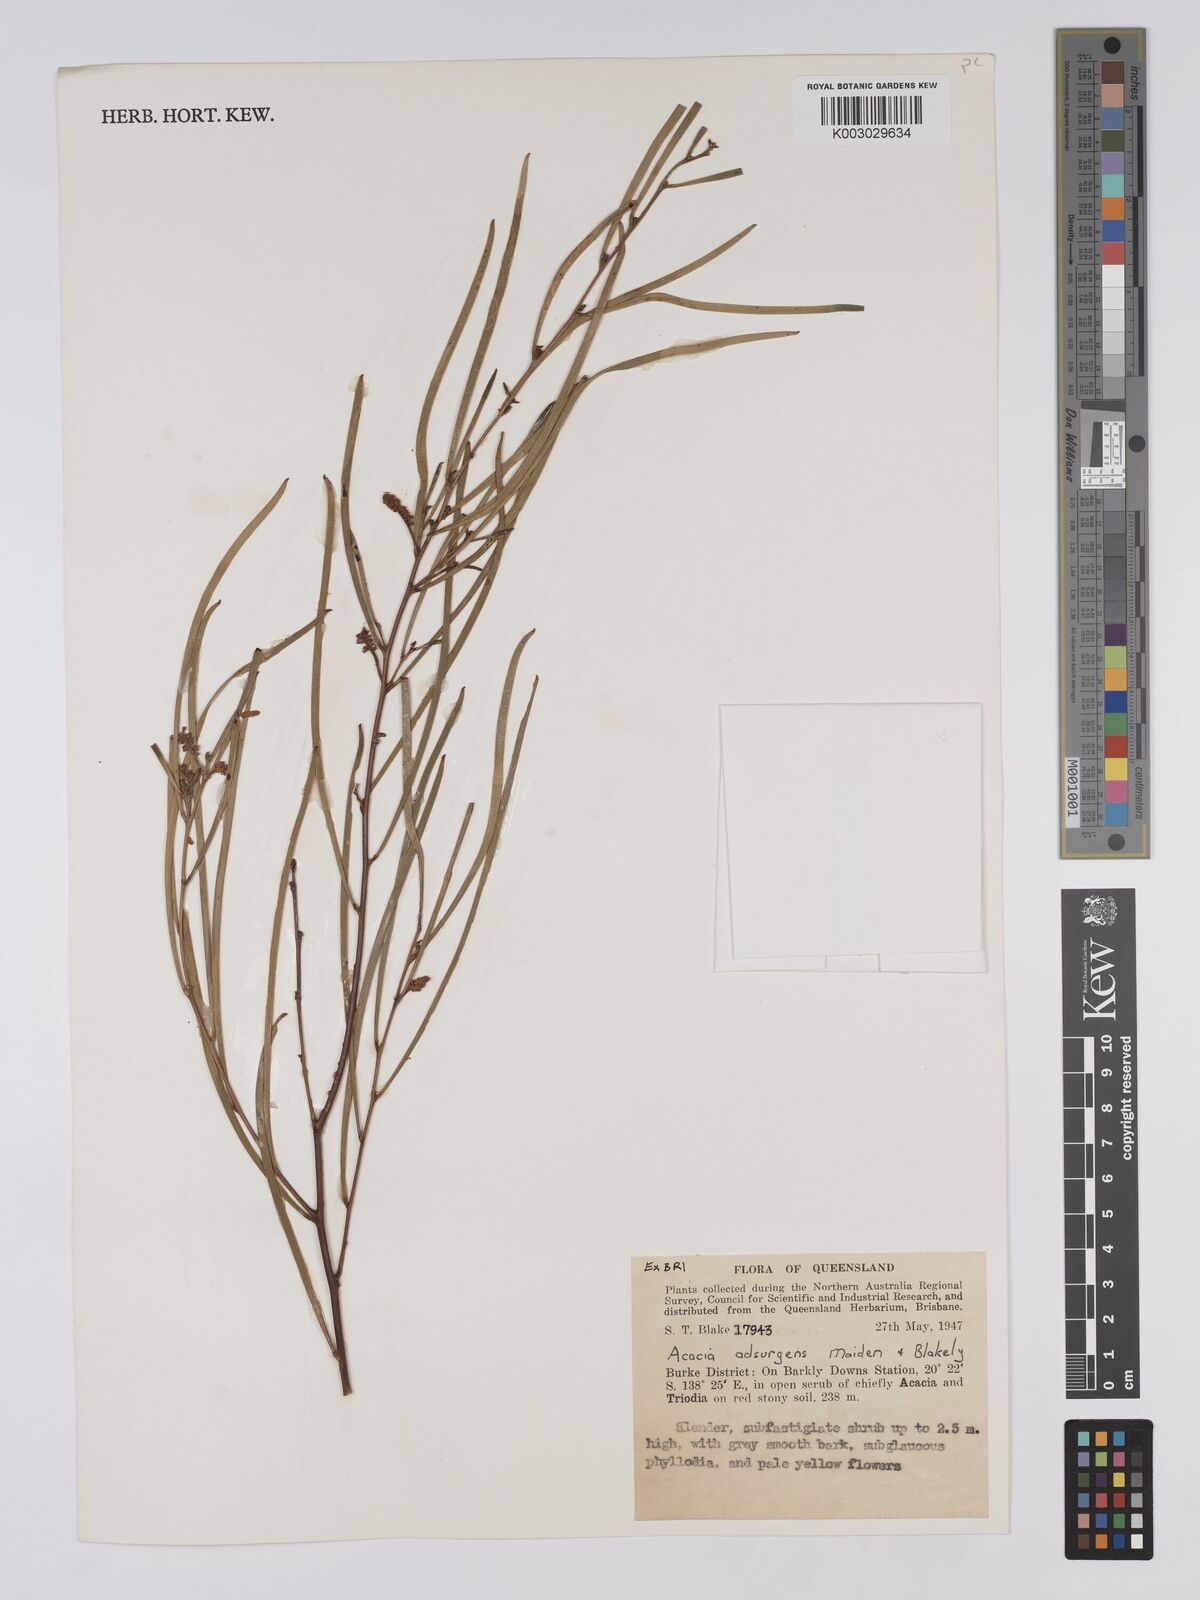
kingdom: Plantae
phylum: Tracheophyta
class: Magnoliopsida
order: Fabales
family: Fabaceae
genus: Acacia
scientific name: Acacia adsurgens
